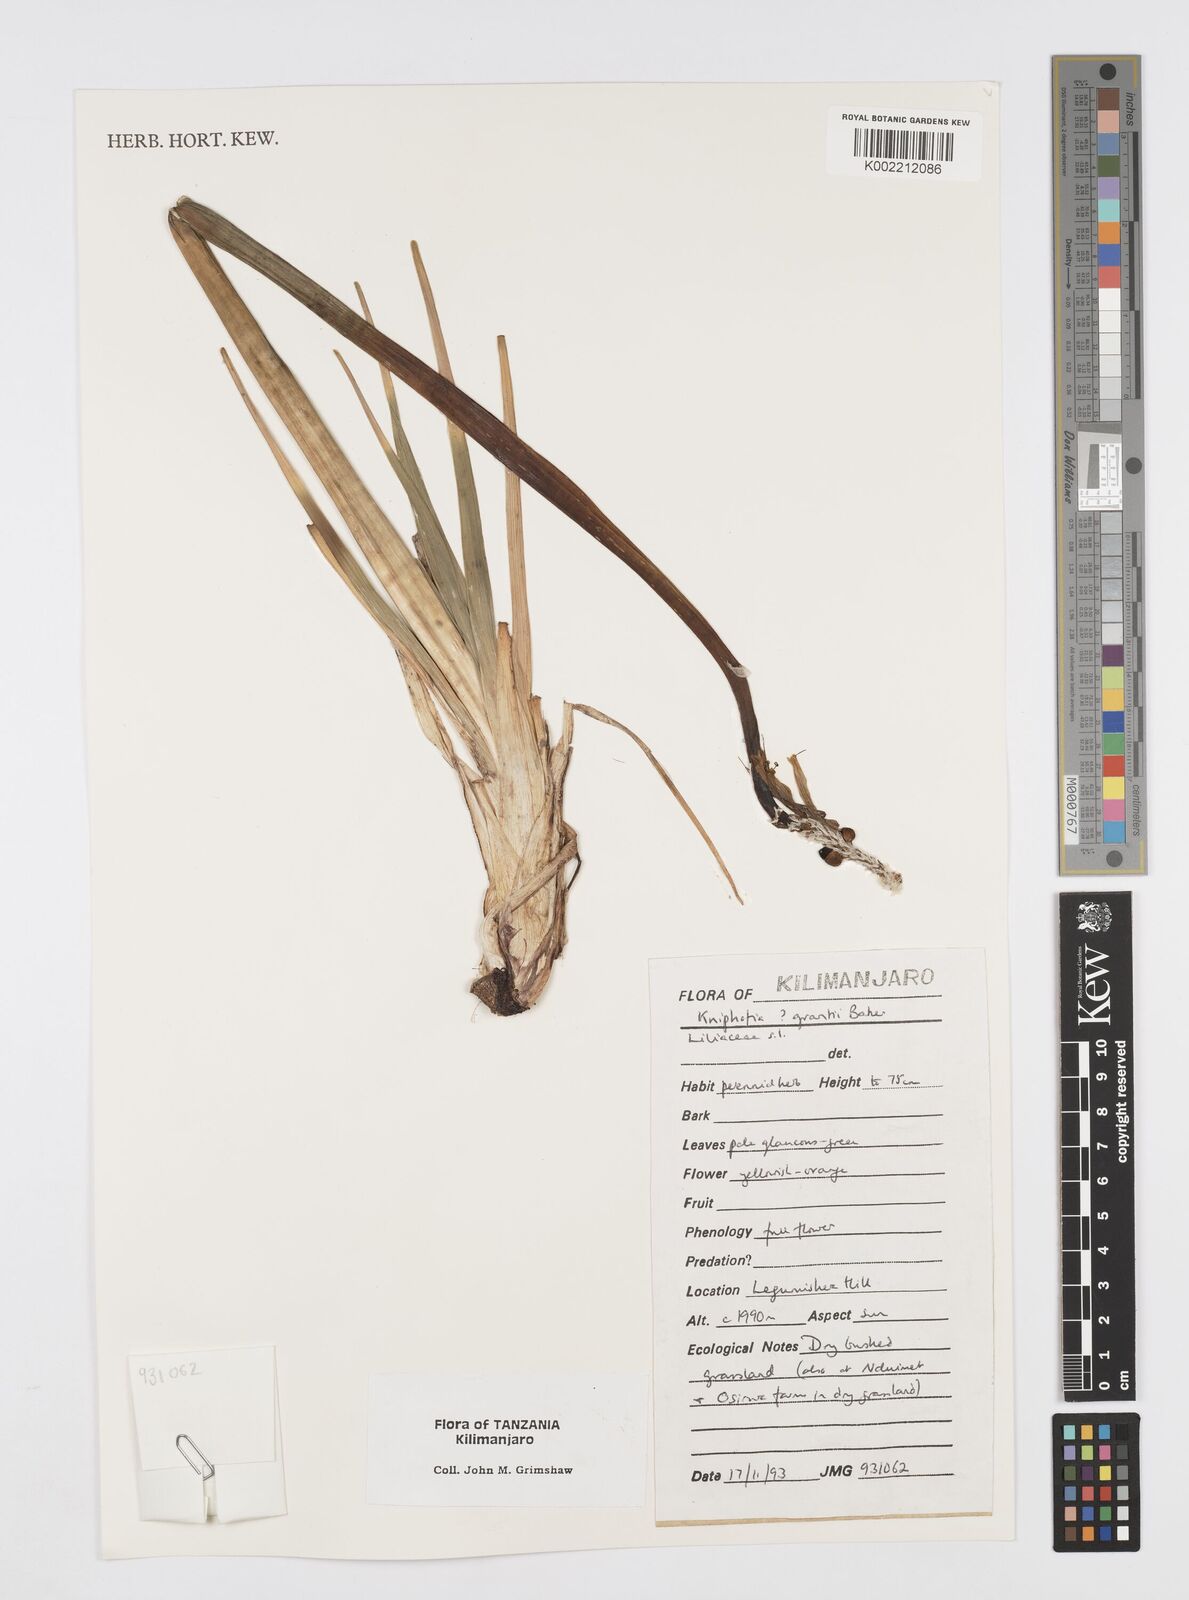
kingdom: Plantae
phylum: Tracheophyta
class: Liliopsida
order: Asparagales
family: Asphodelaceae
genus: Kniphofia
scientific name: Kniphofia grantii
